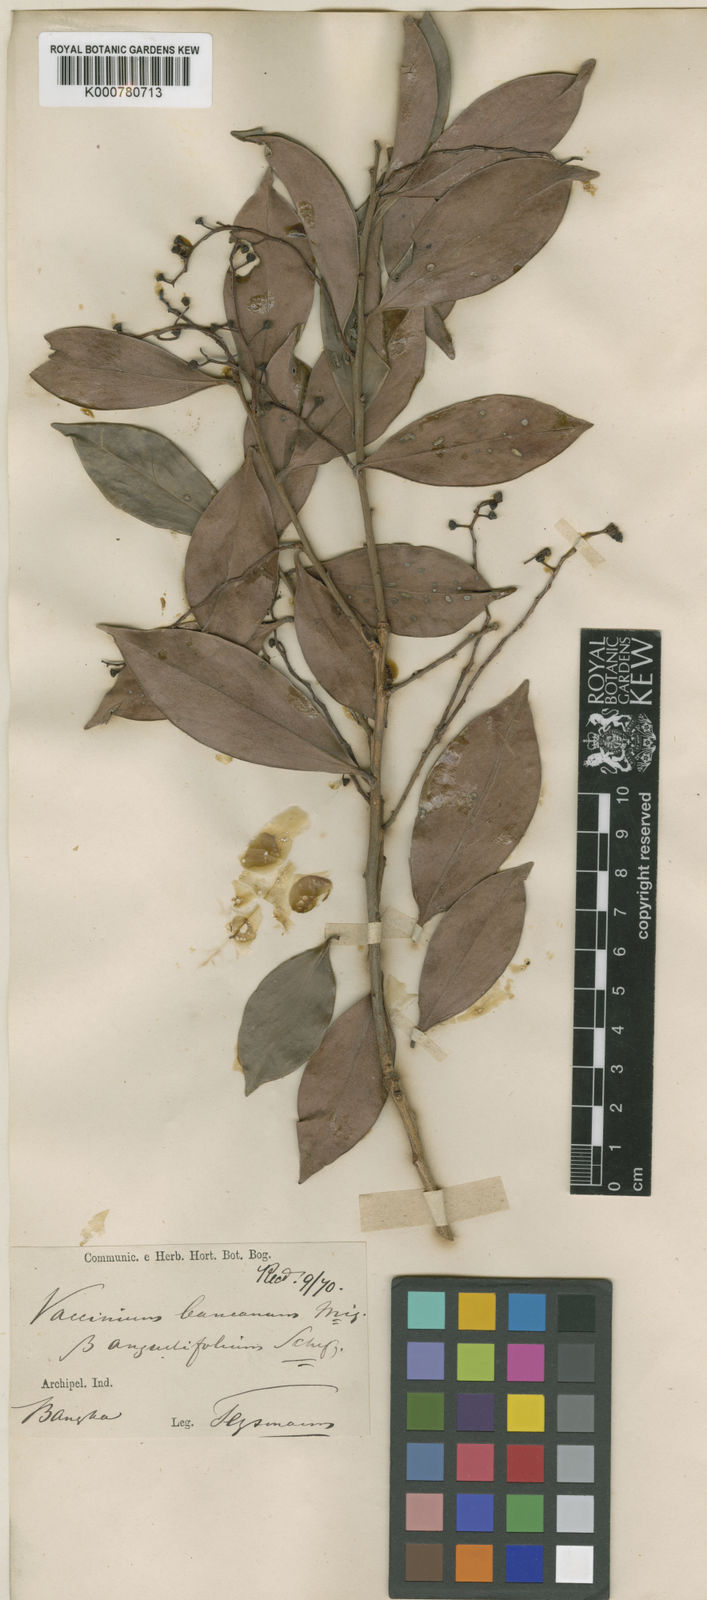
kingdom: Plantae
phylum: Tracheophyta
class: Magnoliopsida
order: Ericales
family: Ericaceae
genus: Vaccinium
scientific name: Vaccinium bancanum
